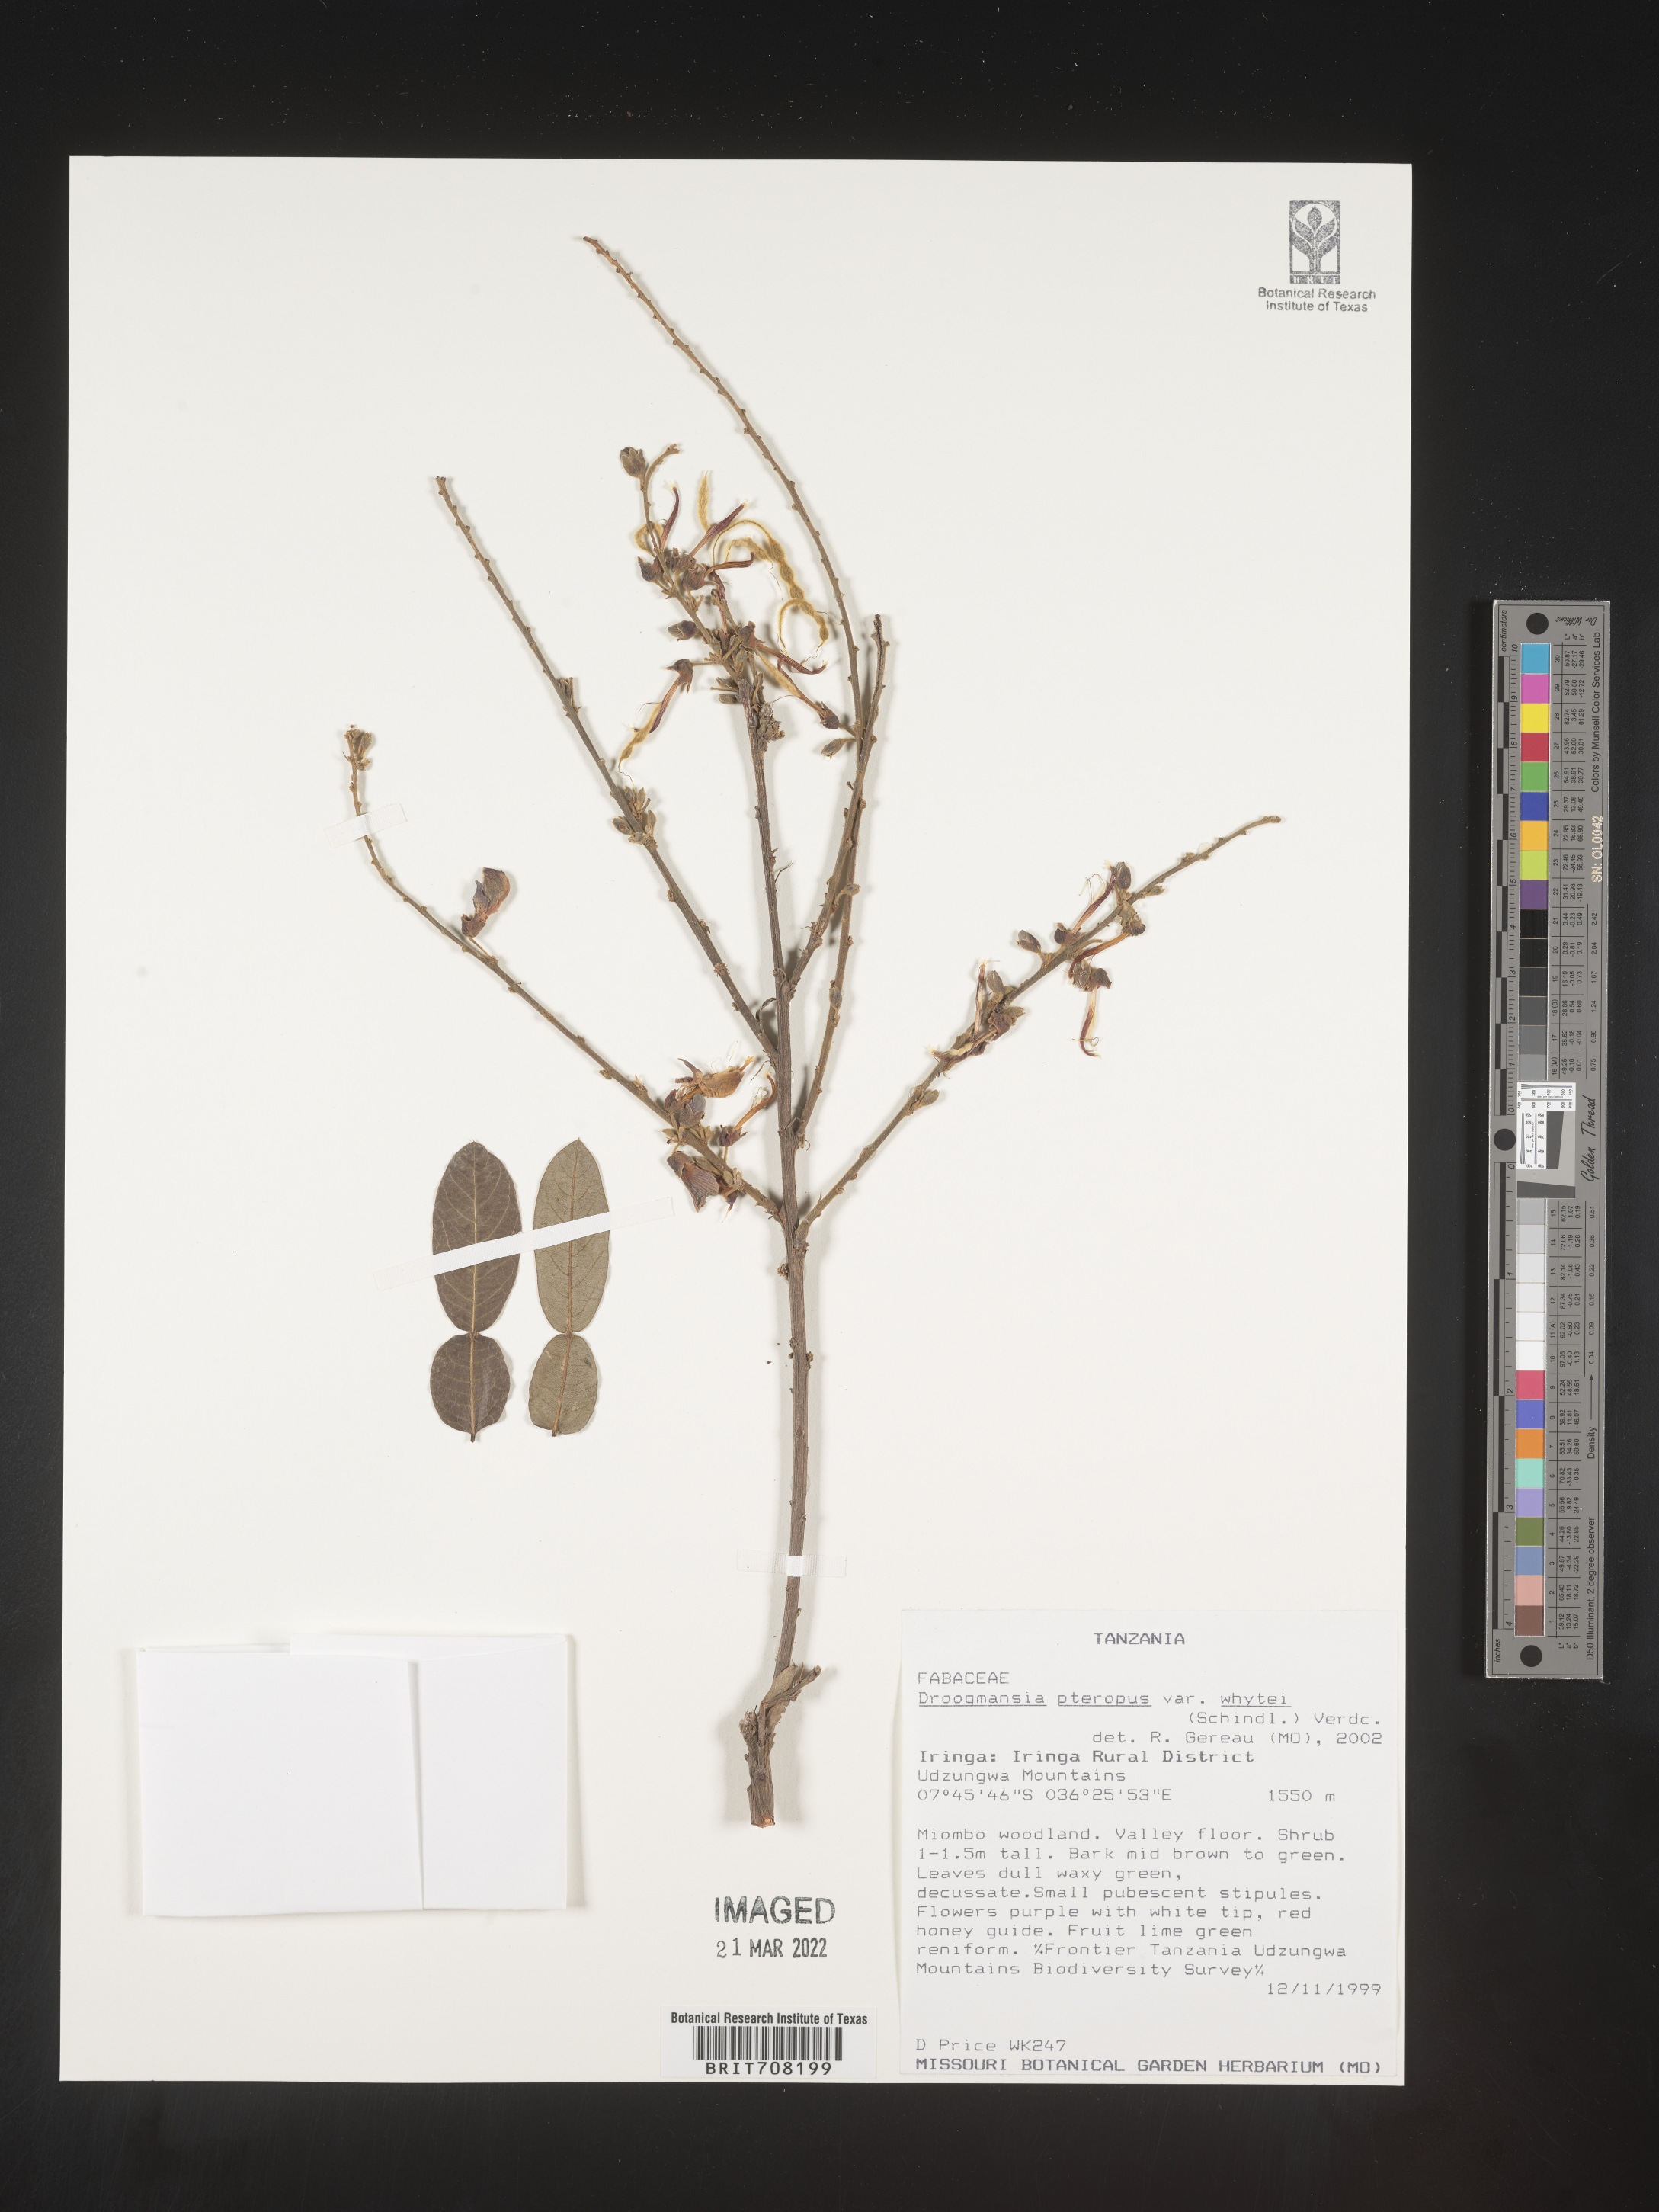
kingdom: Plantae
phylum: Tracheophyta
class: Magnoliopsida
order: Fabales
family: Fabaceae
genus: Droogmansia
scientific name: Droogmansia
